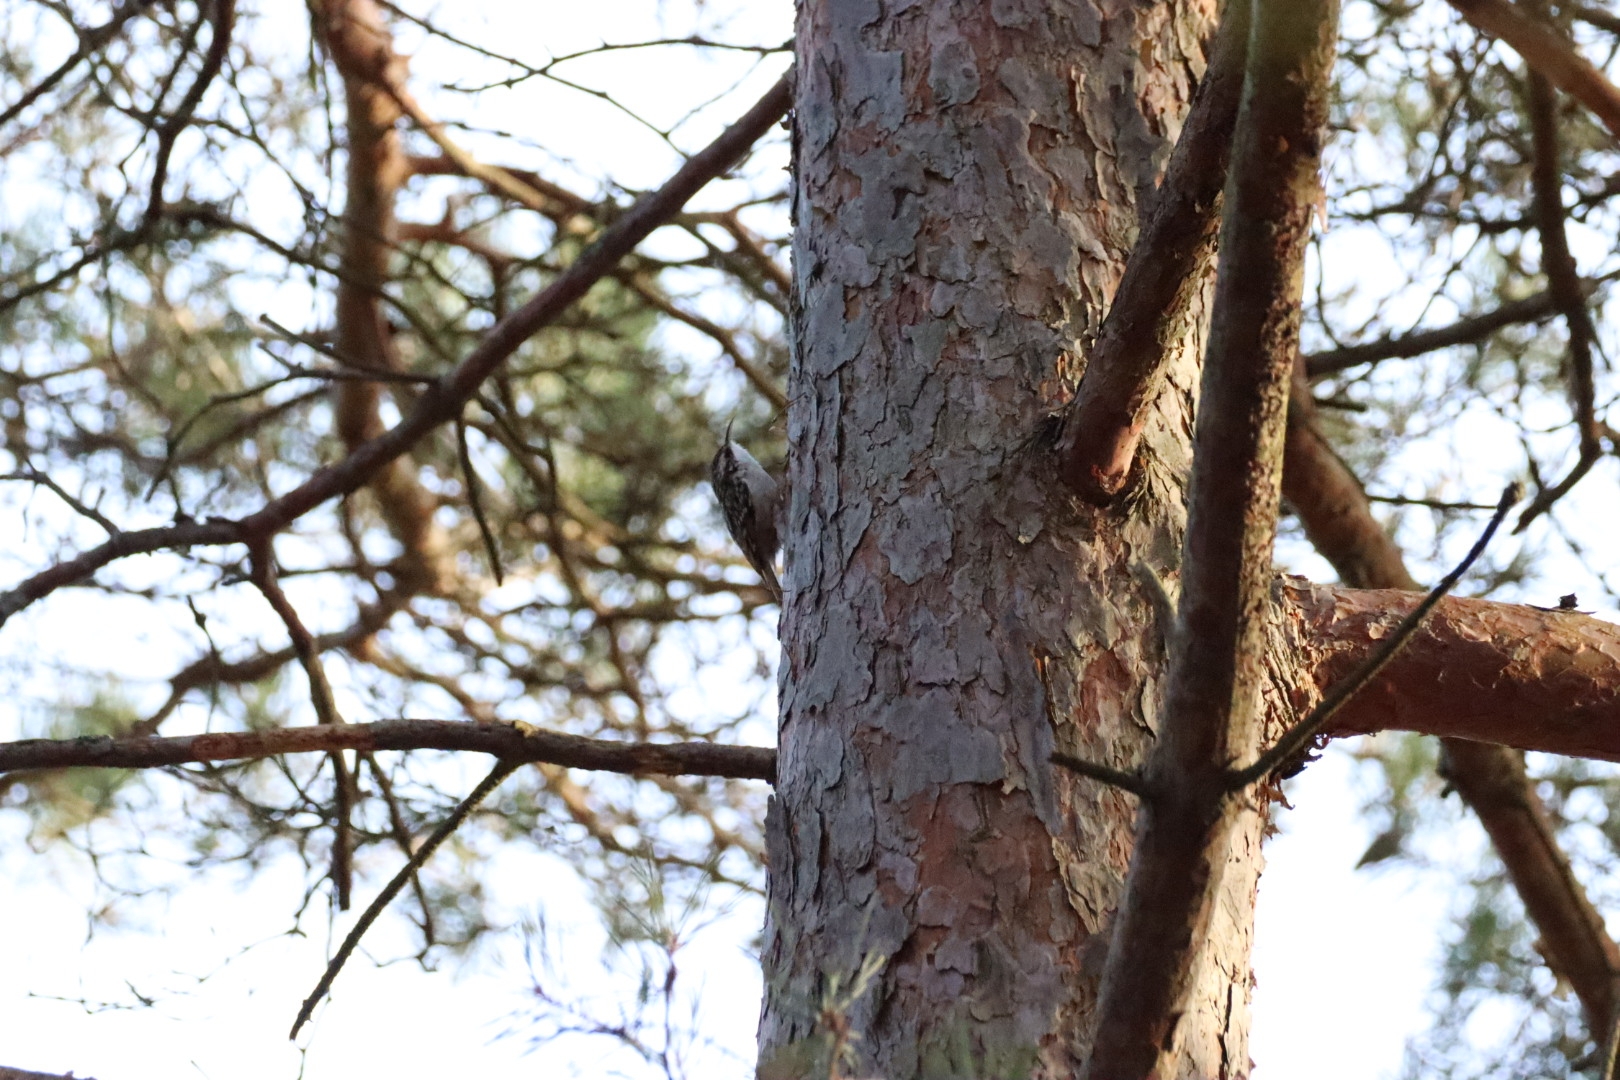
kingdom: Animalia
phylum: Chordata
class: Aves
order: Passeriformes
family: Certhiidae
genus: Certhia
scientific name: Certhia familiaris
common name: Træløber
